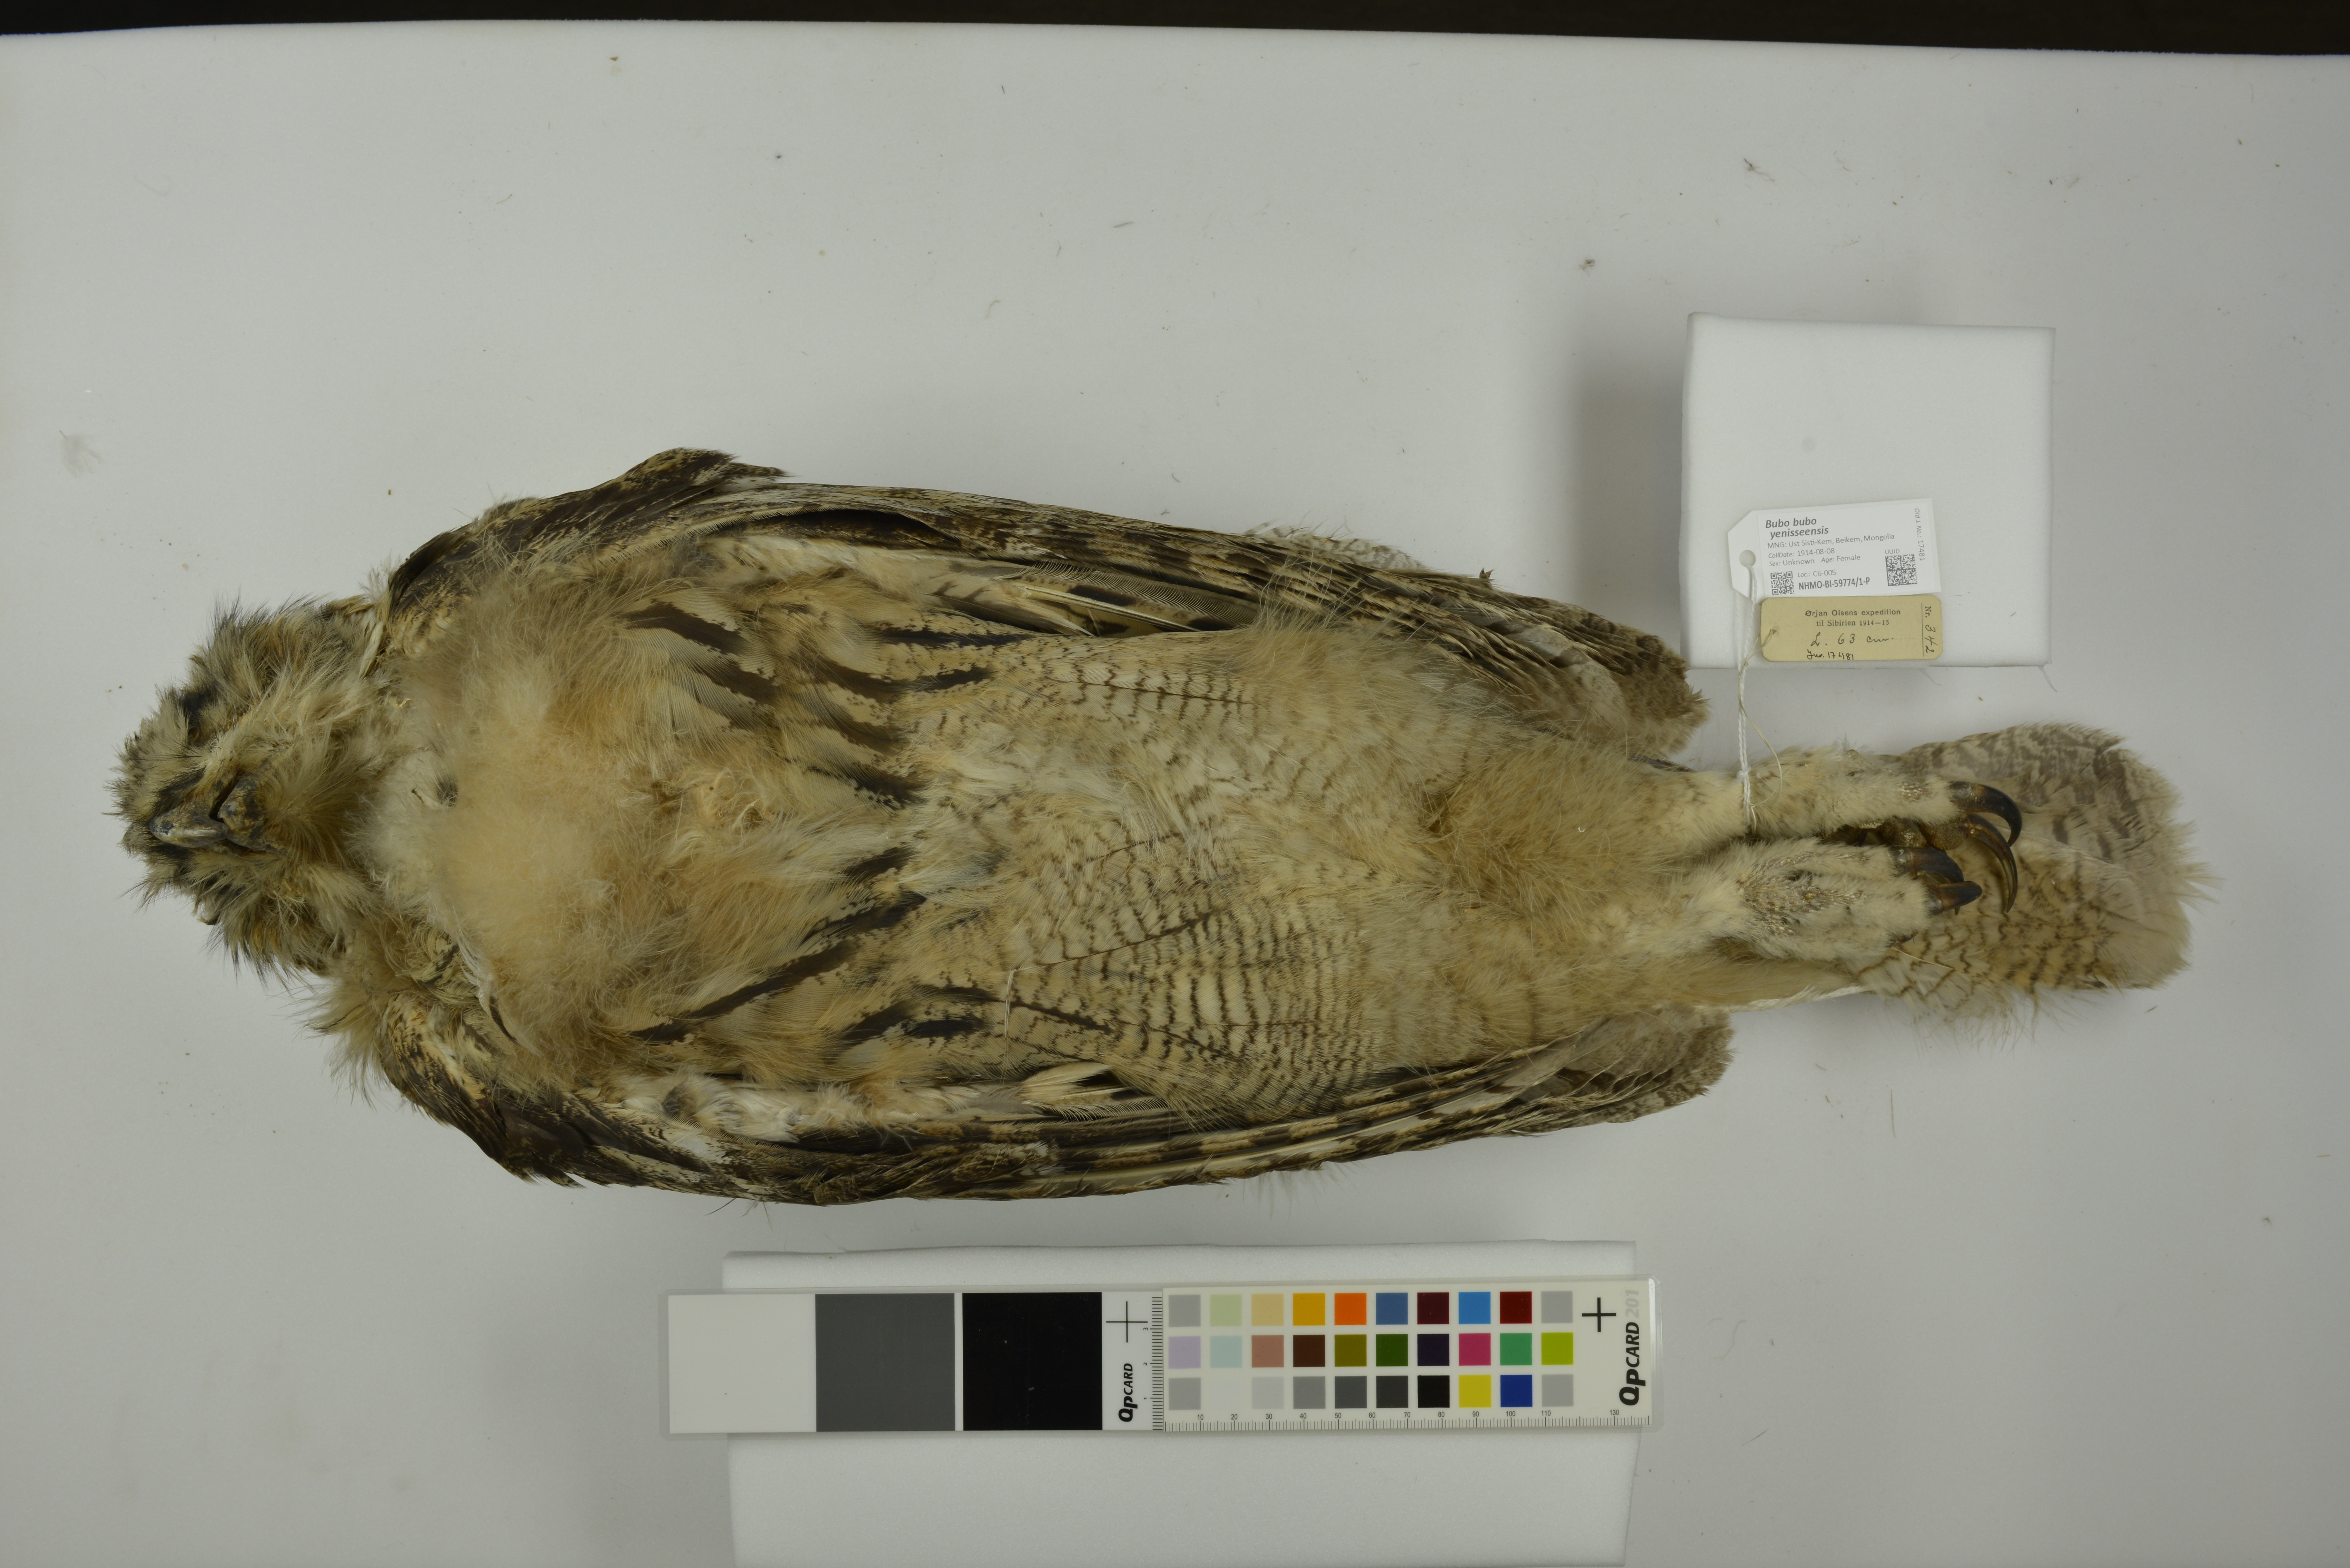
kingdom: Animalia
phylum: Chordata
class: Aves
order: Strigiformes
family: Strigidae
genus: Bubo
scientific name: Bubo bubo
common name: Eurasian eagle-owl
